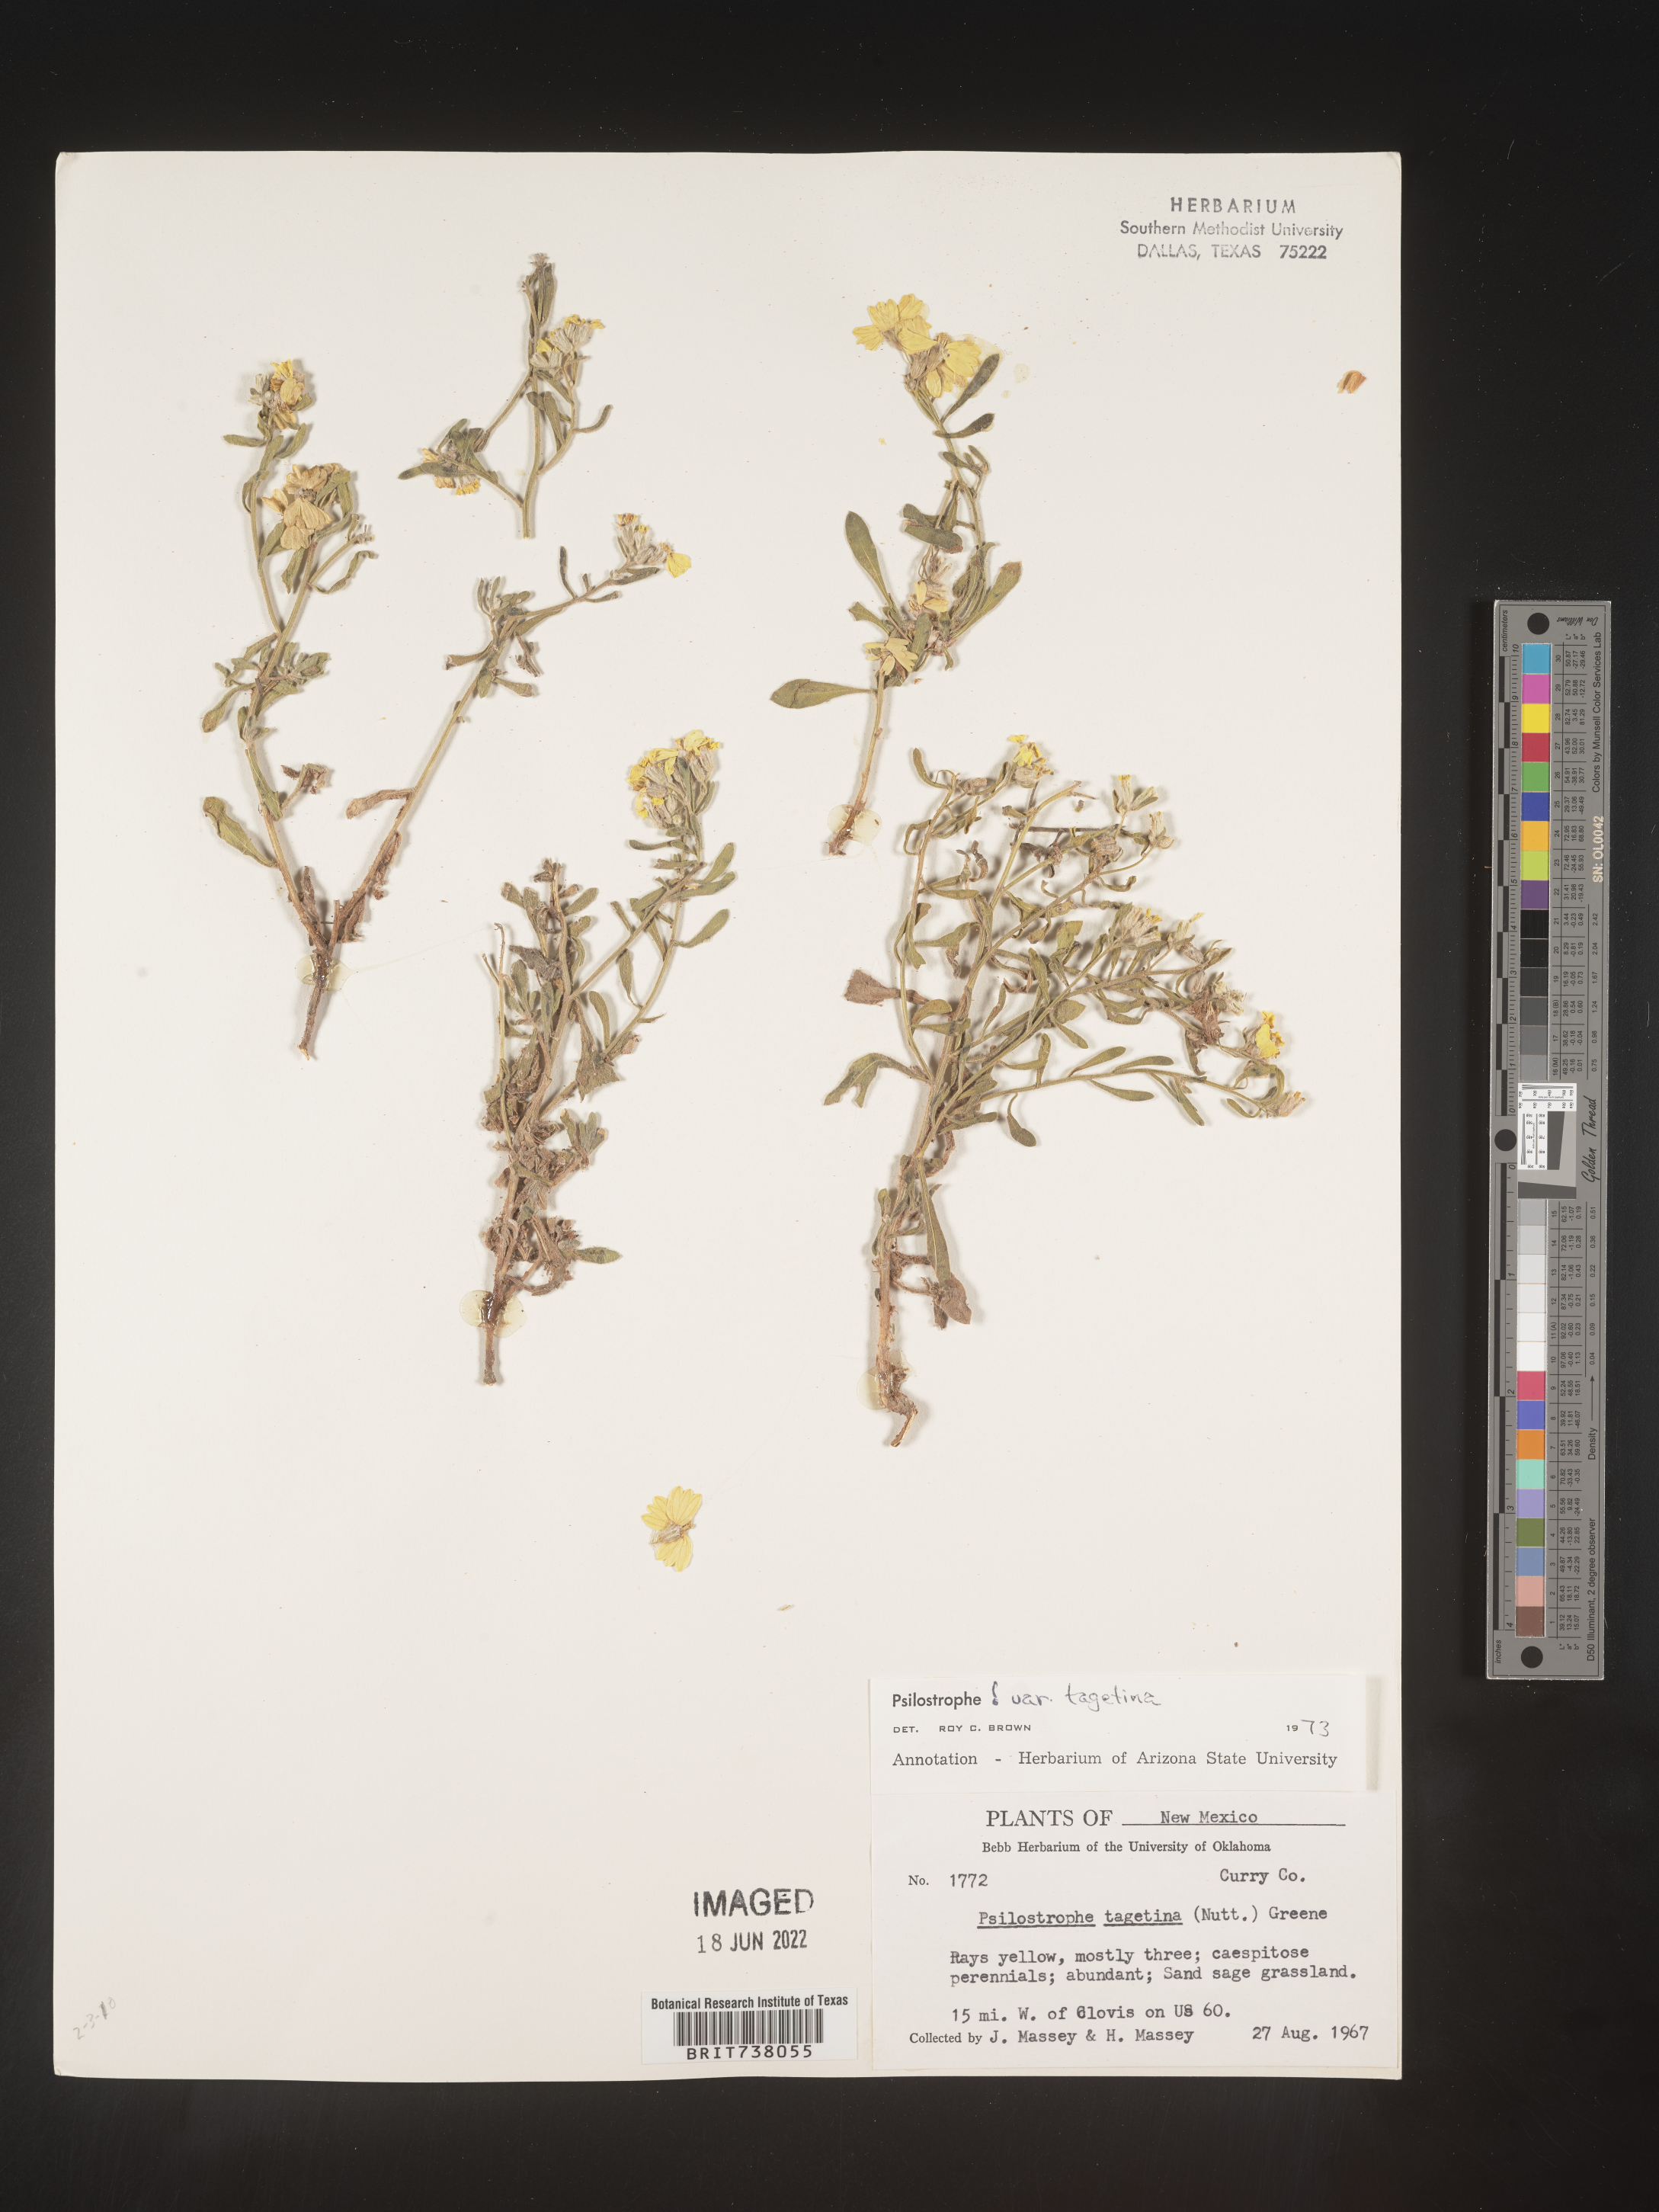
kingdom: Plantae
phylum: Tracheophyta
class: Magnoliopsida
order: Asterales
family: Asteraceae
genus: Psilostrophe
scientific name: Psilostrophe tagetina
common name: Marigold paper-flower
